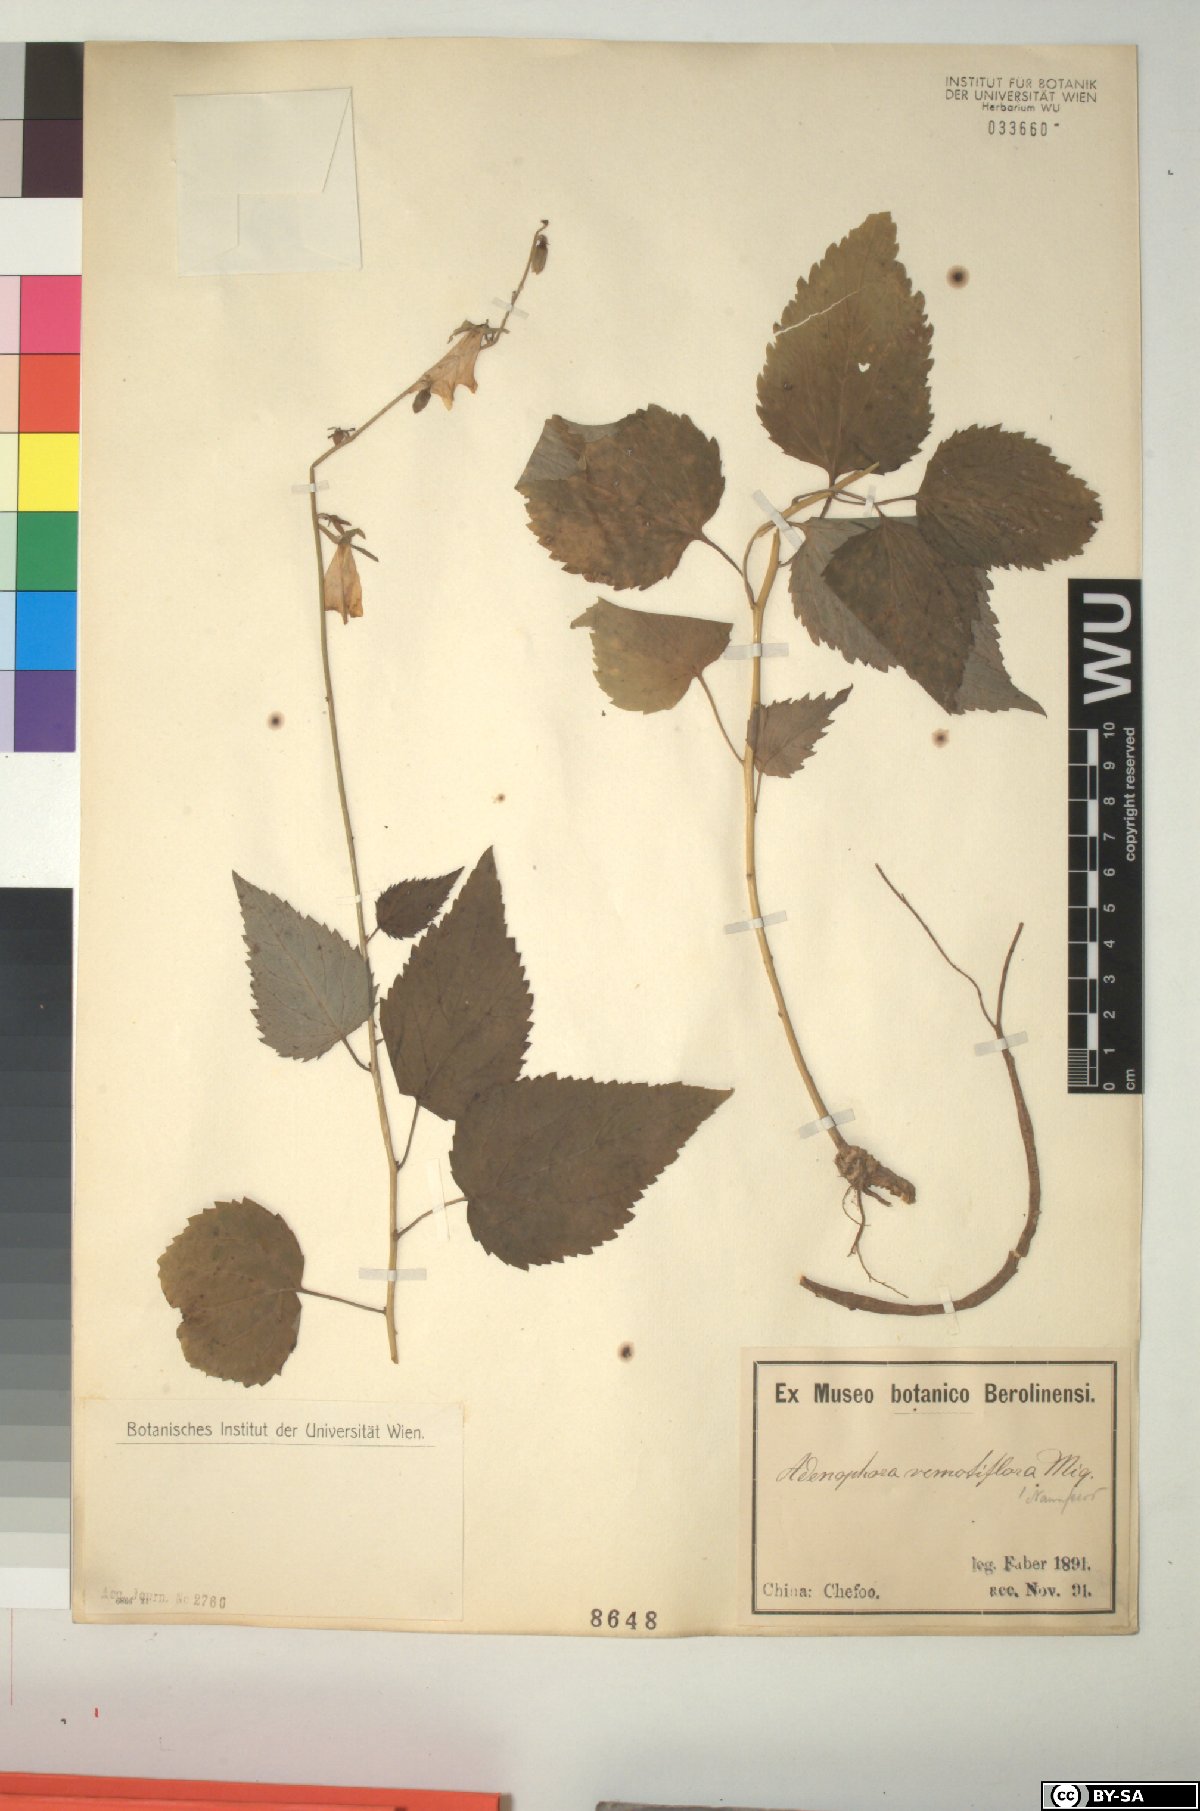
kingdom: Plantae
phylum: Tracheophyta
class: Magnoliopsida
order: Asterales
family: Campanulaceae
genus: Adenophora
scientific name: Adenophora remotiflora
